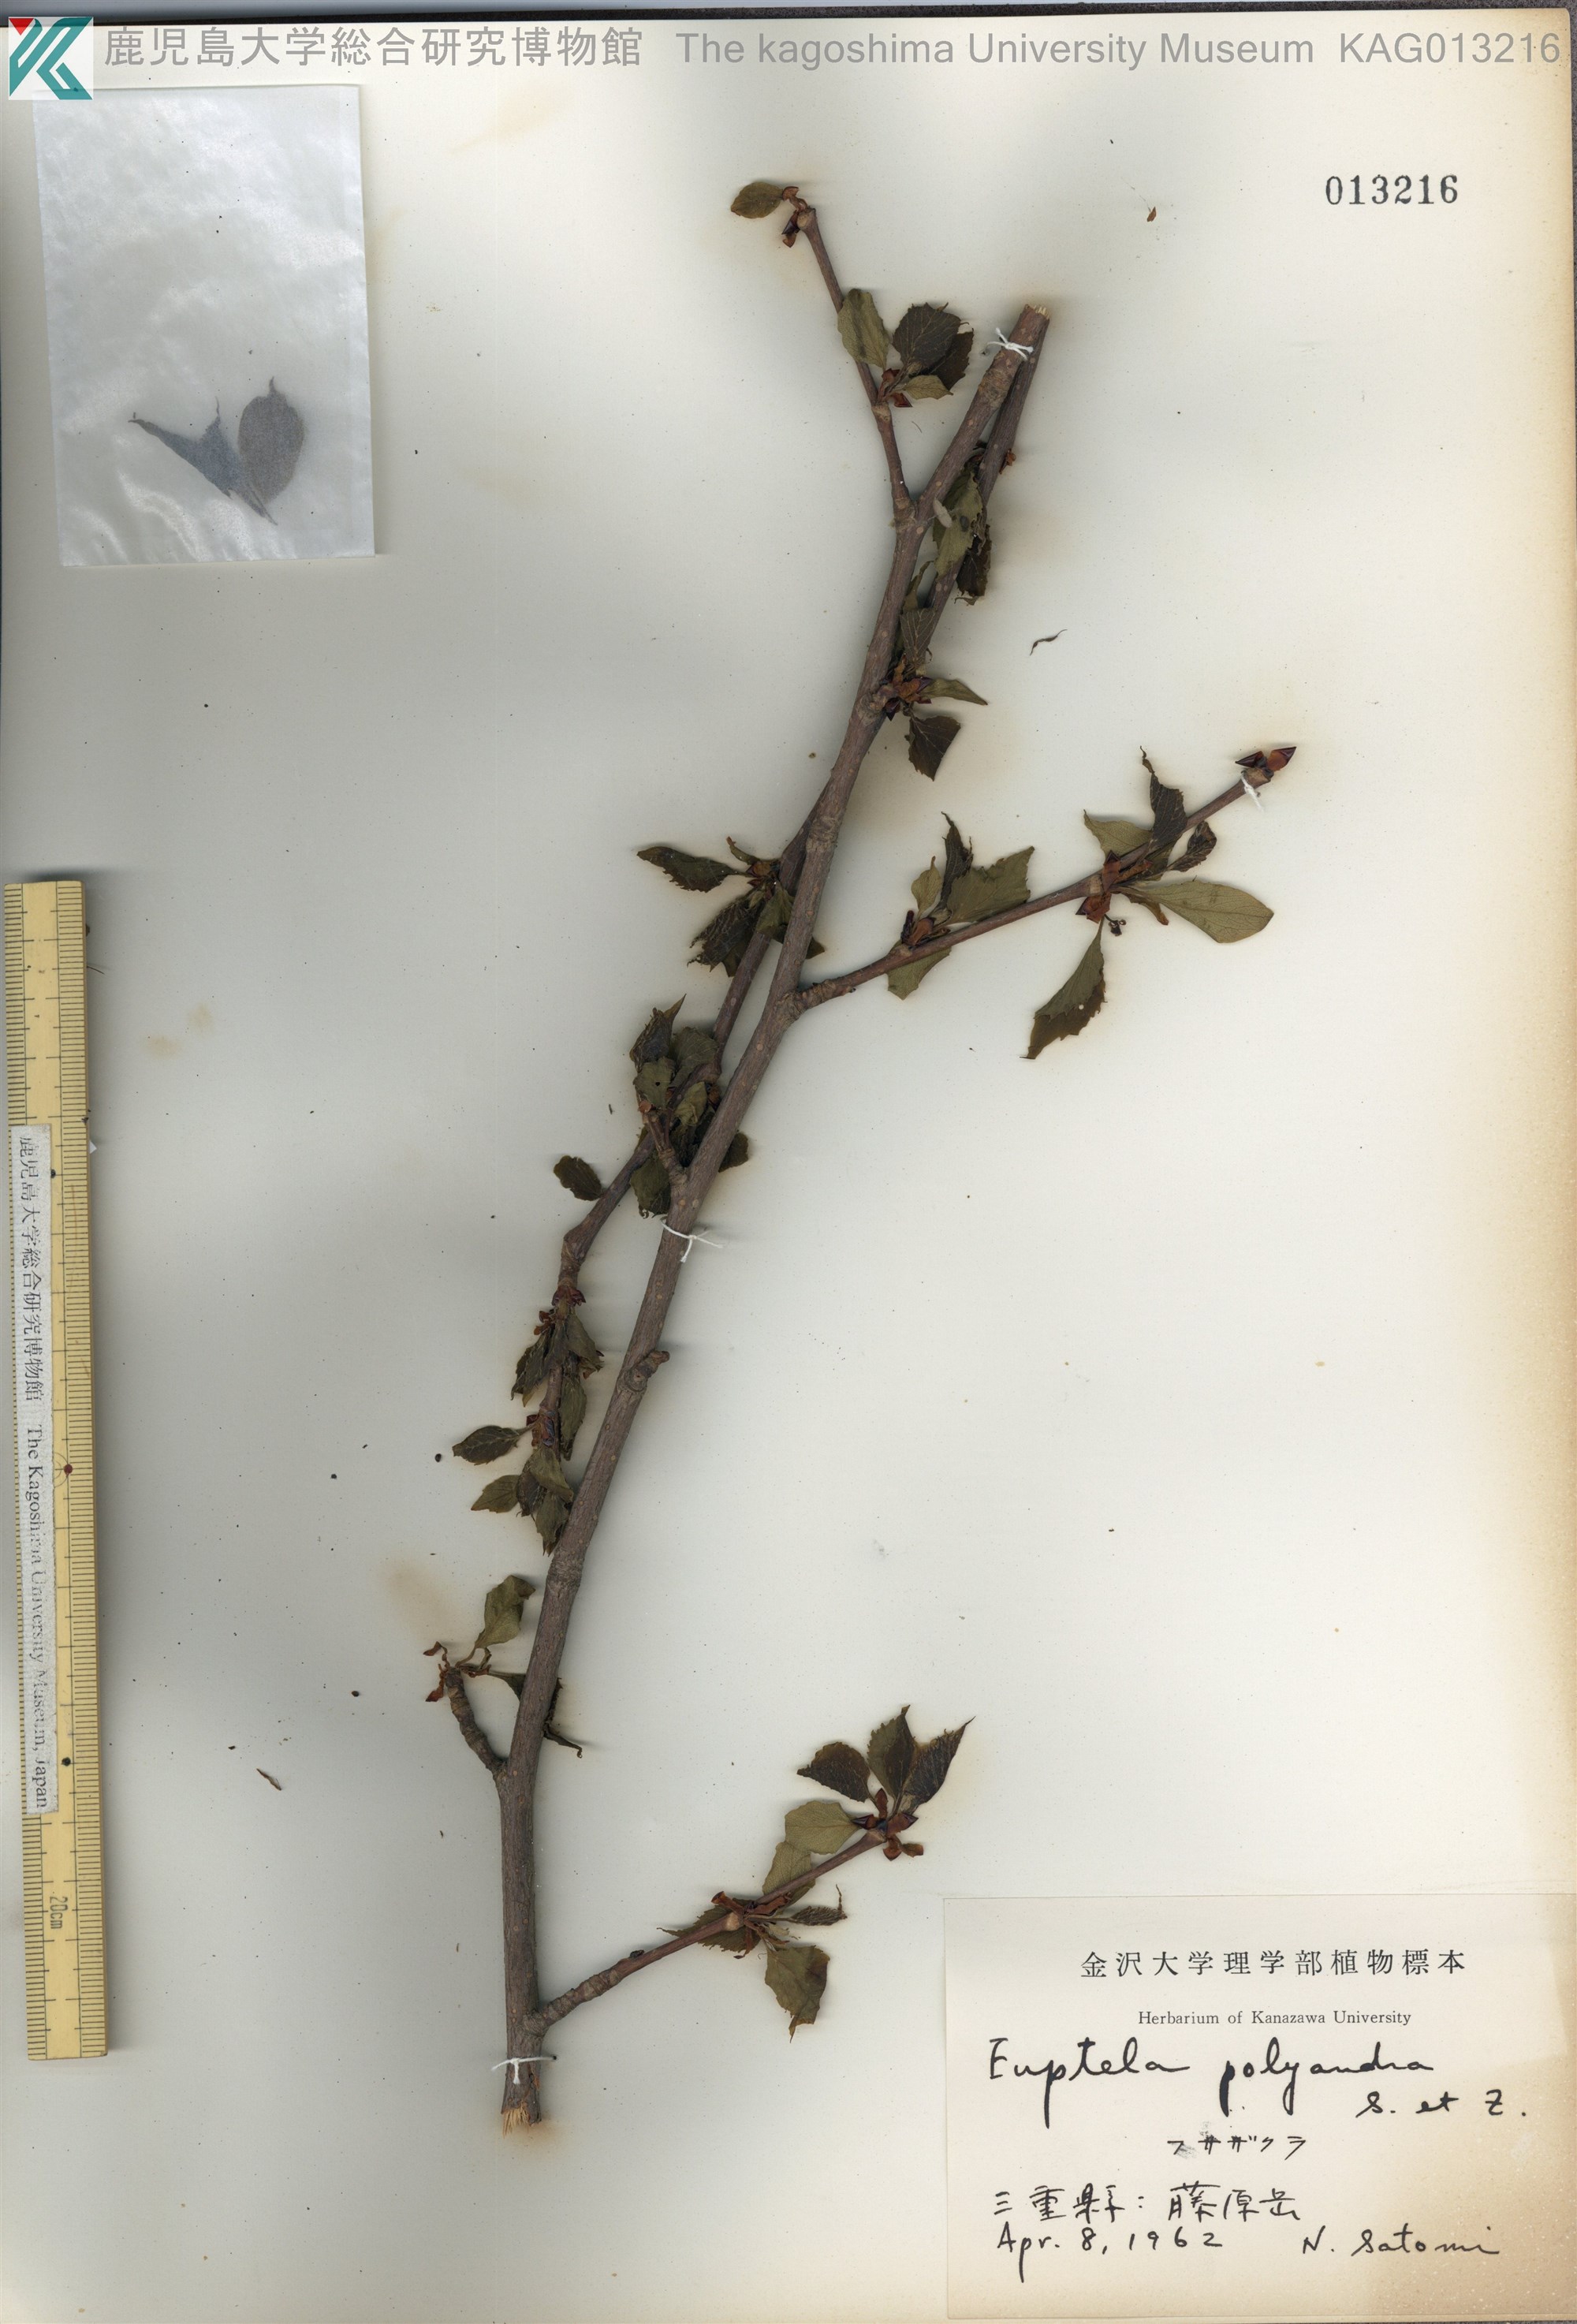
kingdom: Plantae
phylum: Tracheophyta
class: Magnoliopsida
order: Ranunculales
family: Eupteleaceae
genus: Euptelea
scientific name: Euptelea polyandra
